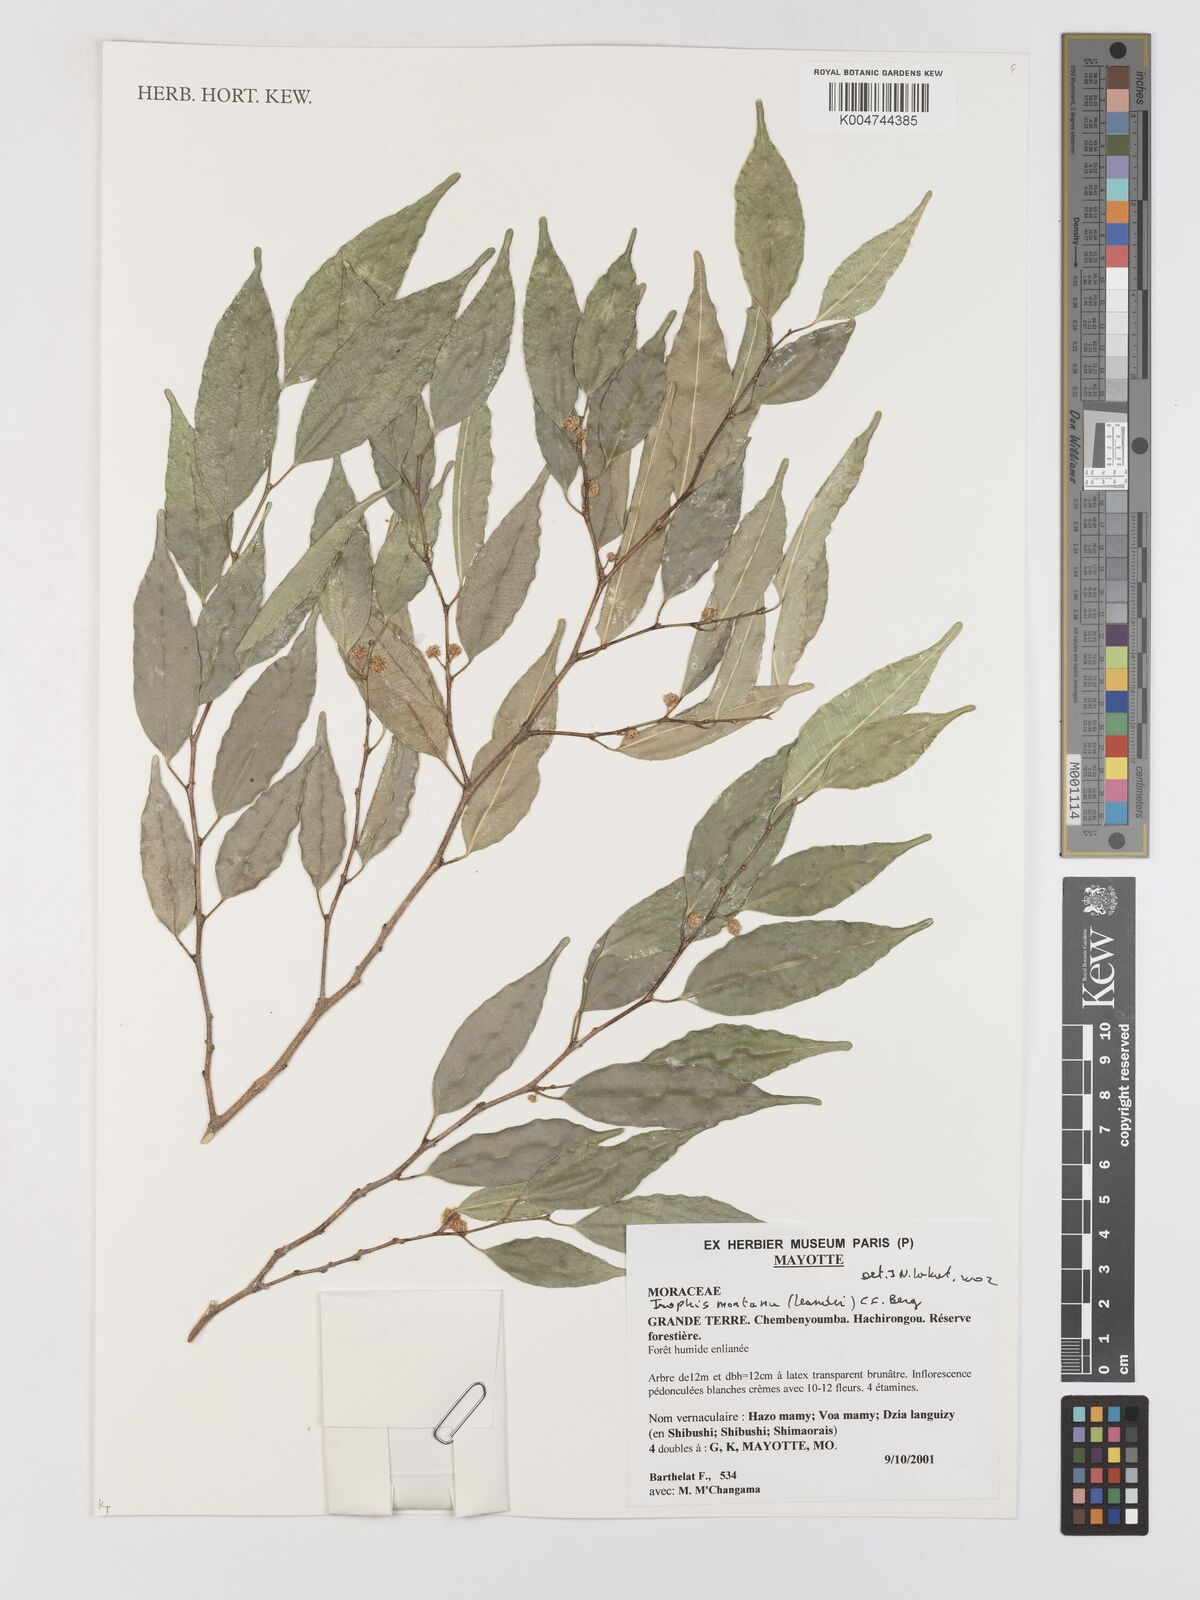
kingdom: Plantae
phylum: Tracheophyta
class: Magnoliopsida
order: Rosales
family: Moraceae
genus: Maillardia
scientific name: Maillardia montana
